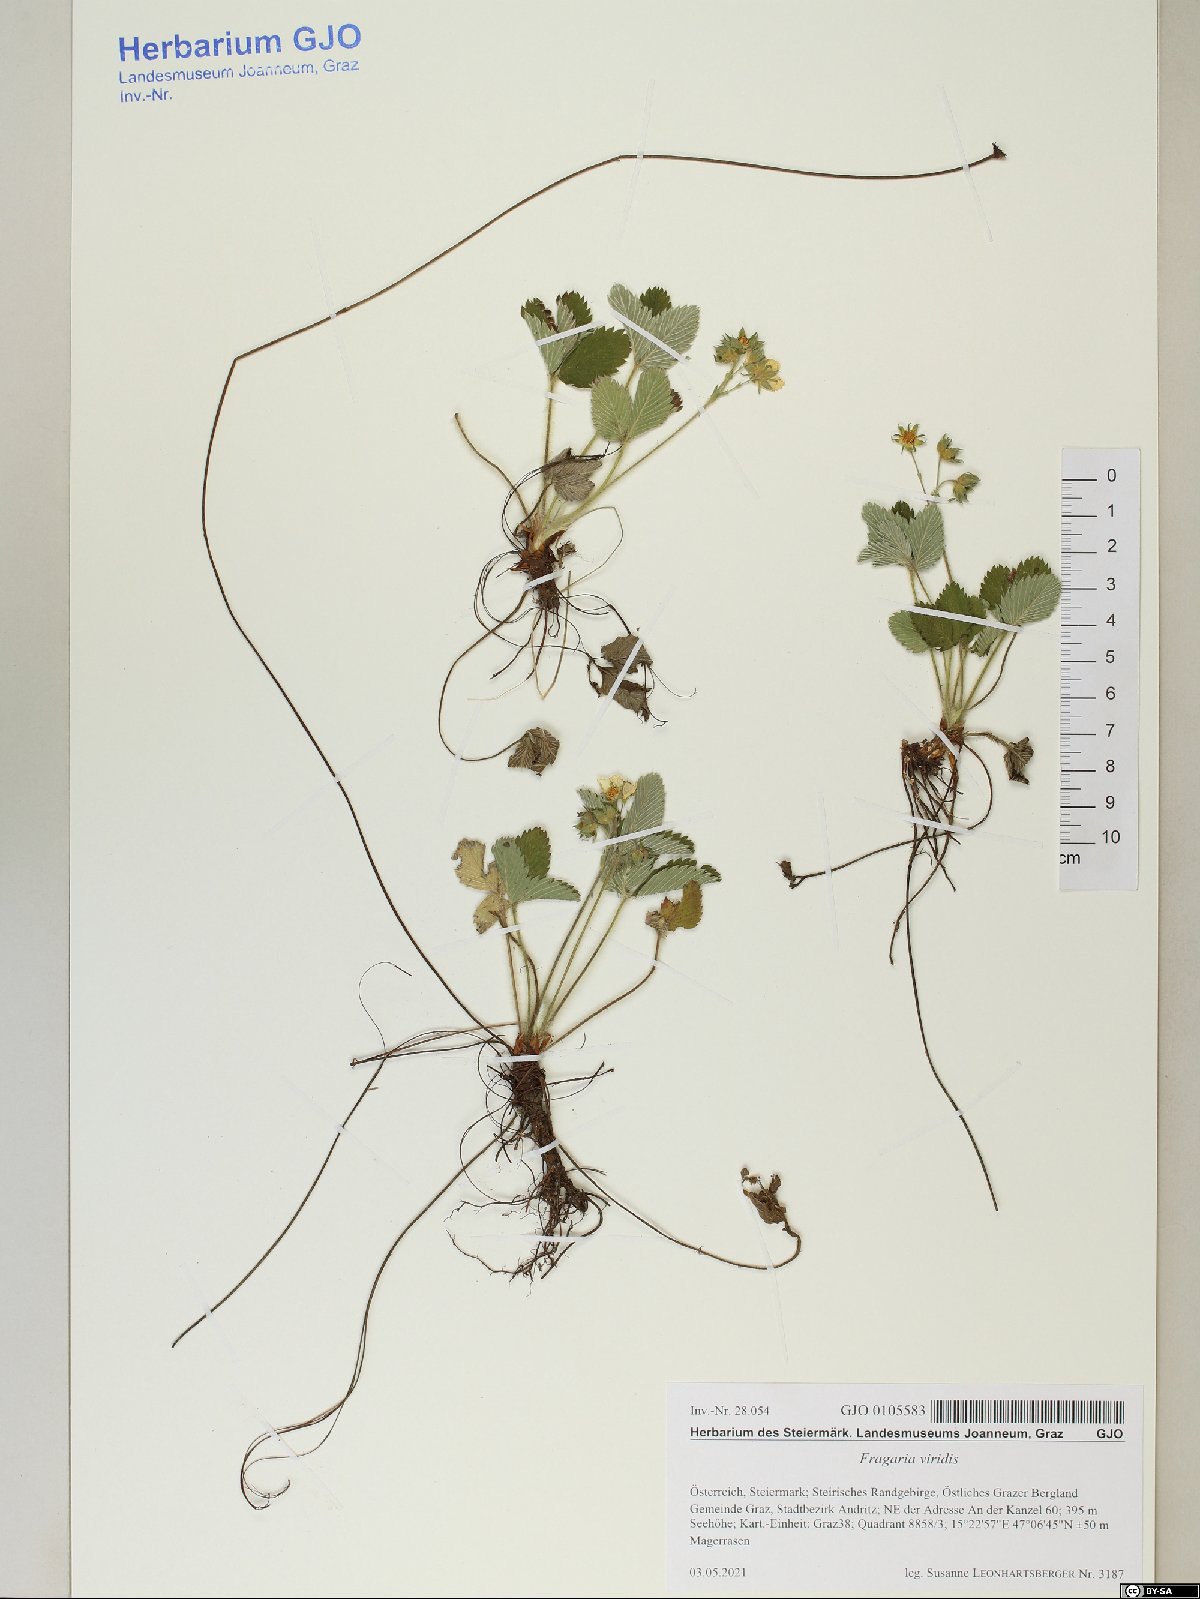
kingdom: Plantae
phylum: Tracheophyta
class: Magnoliopsida
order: Rosales
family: Rosaceae
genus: Fragaria
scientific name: Fragaria viridis
